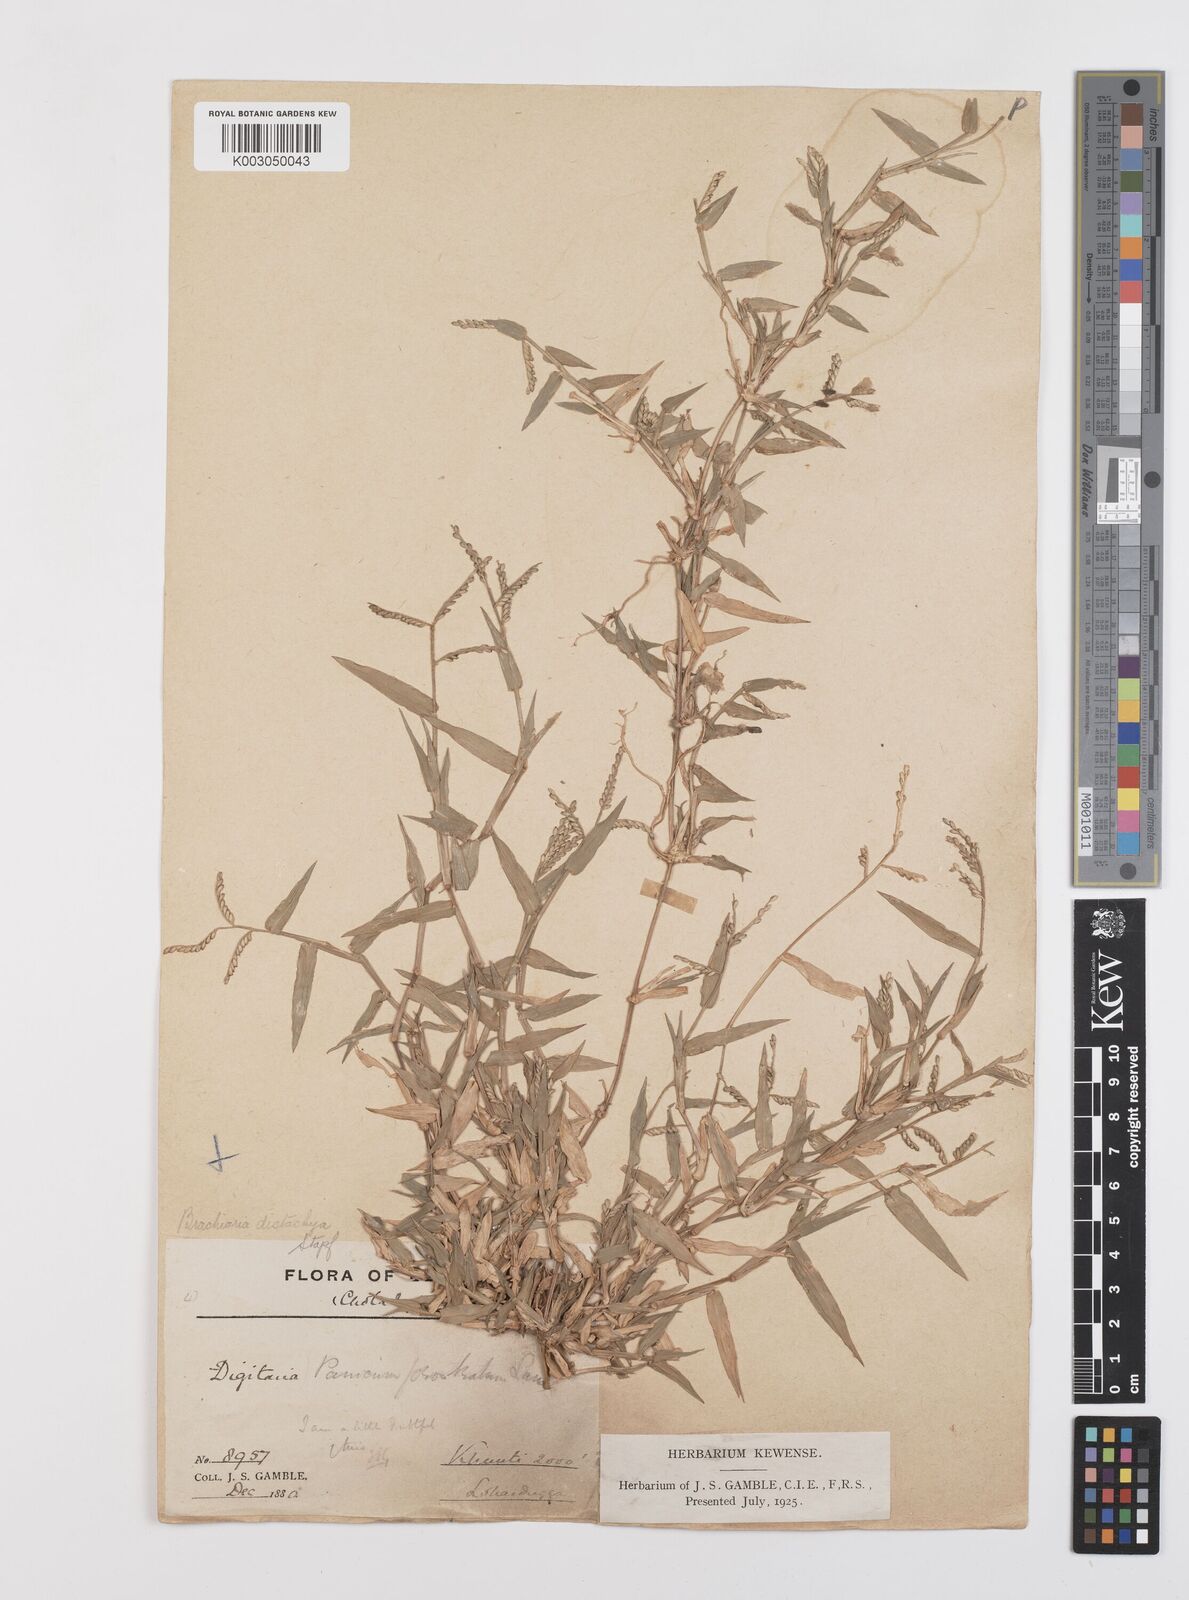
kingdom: Plantae
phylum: Tracheophyta
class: Liliopsida
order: Poales
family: Poaceae
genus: Urochloa
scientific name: Urochloa distachyos
